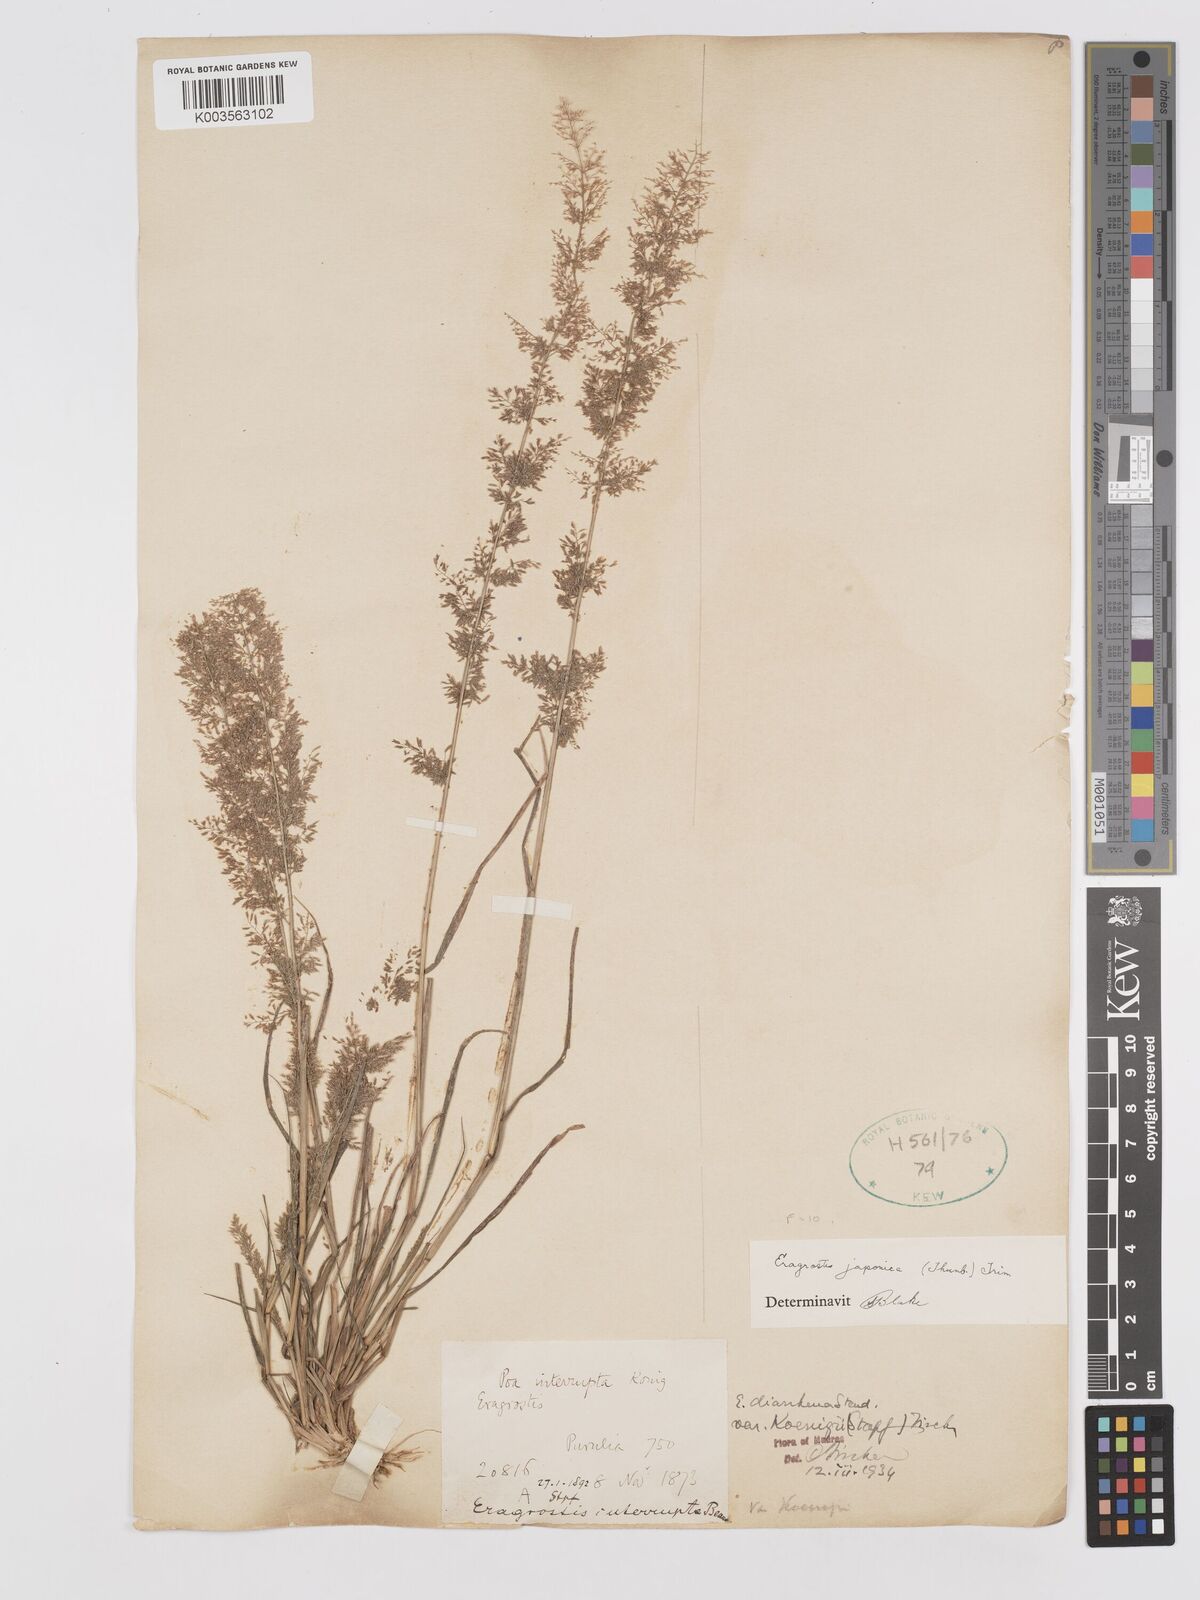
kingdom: Plantae
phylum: Tracheophyta
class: Liliopsida
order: Poales
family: Poaceae
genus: Eragrostis
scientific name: Eragrostis japonica
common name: Pond lovegrass
